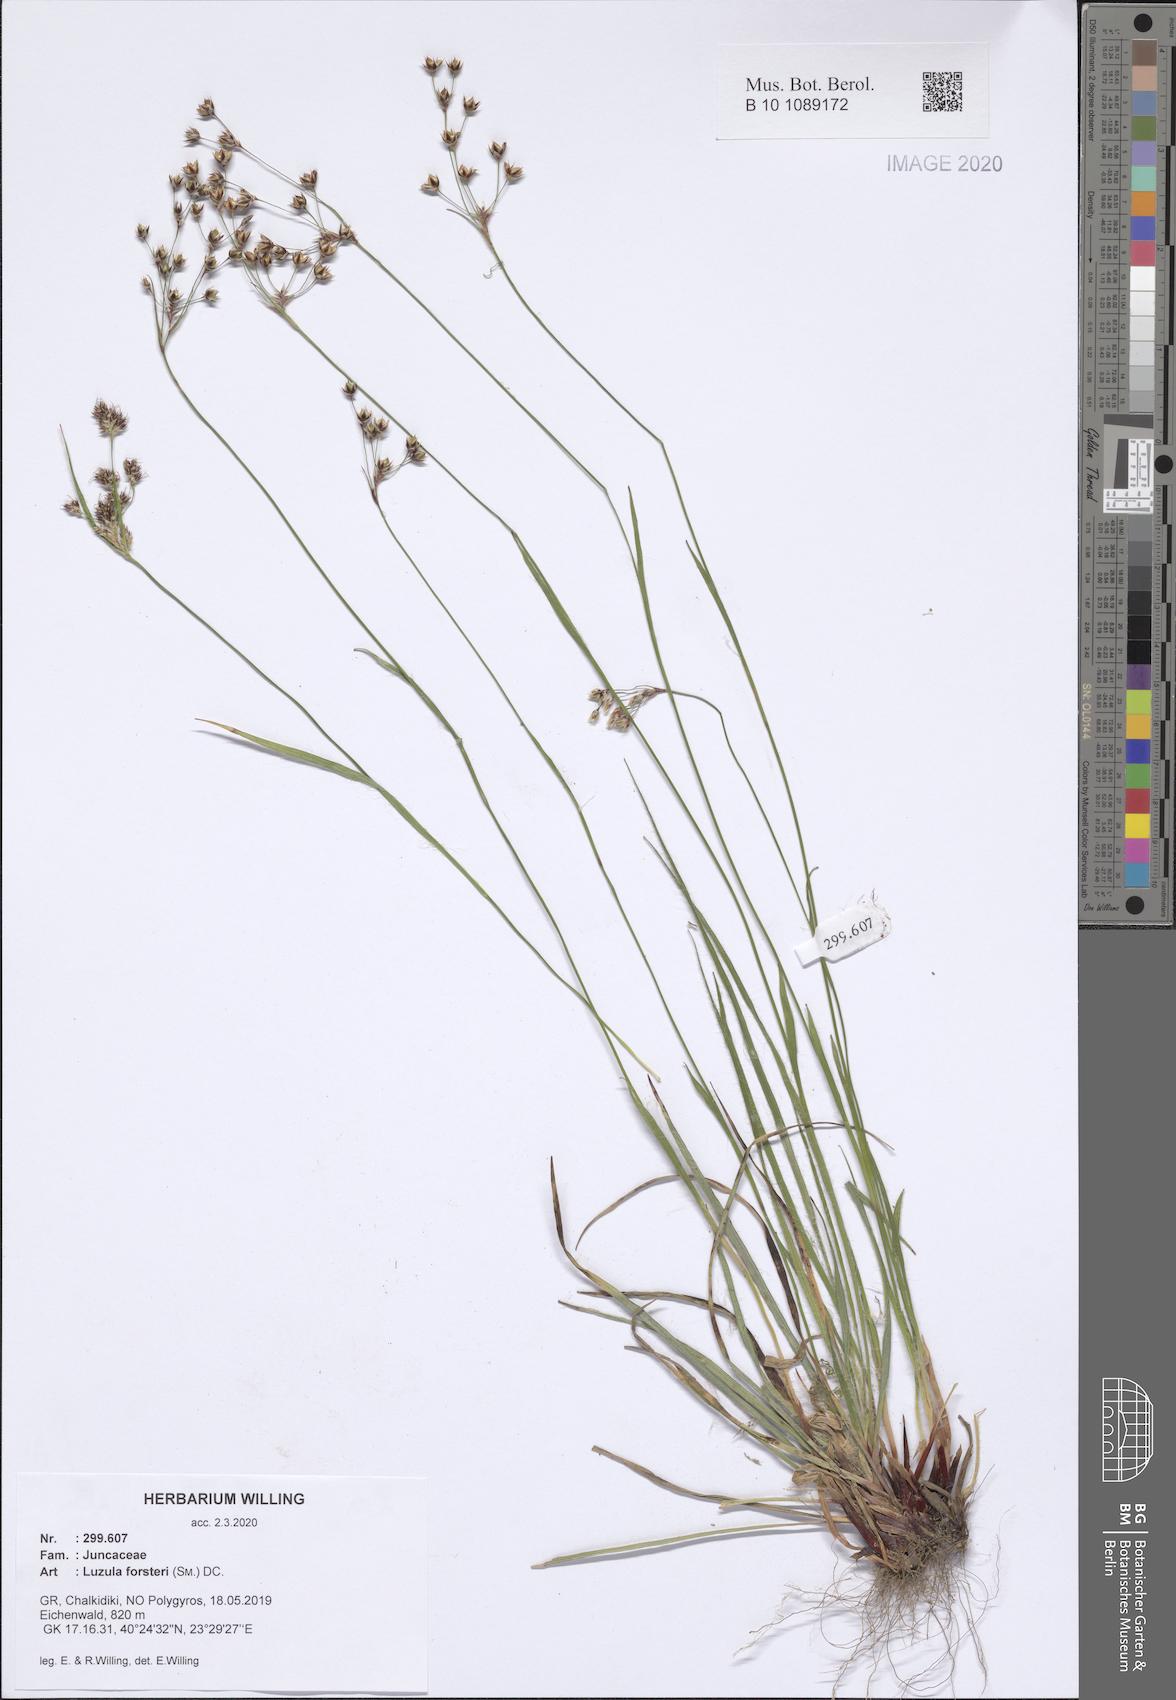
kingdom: Plantae
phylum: Tracheophyta
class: Liliopsida
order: Poales
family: Juncaceae
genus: Luzula
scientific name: Luzula forsteri
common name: Southern wood-rush
